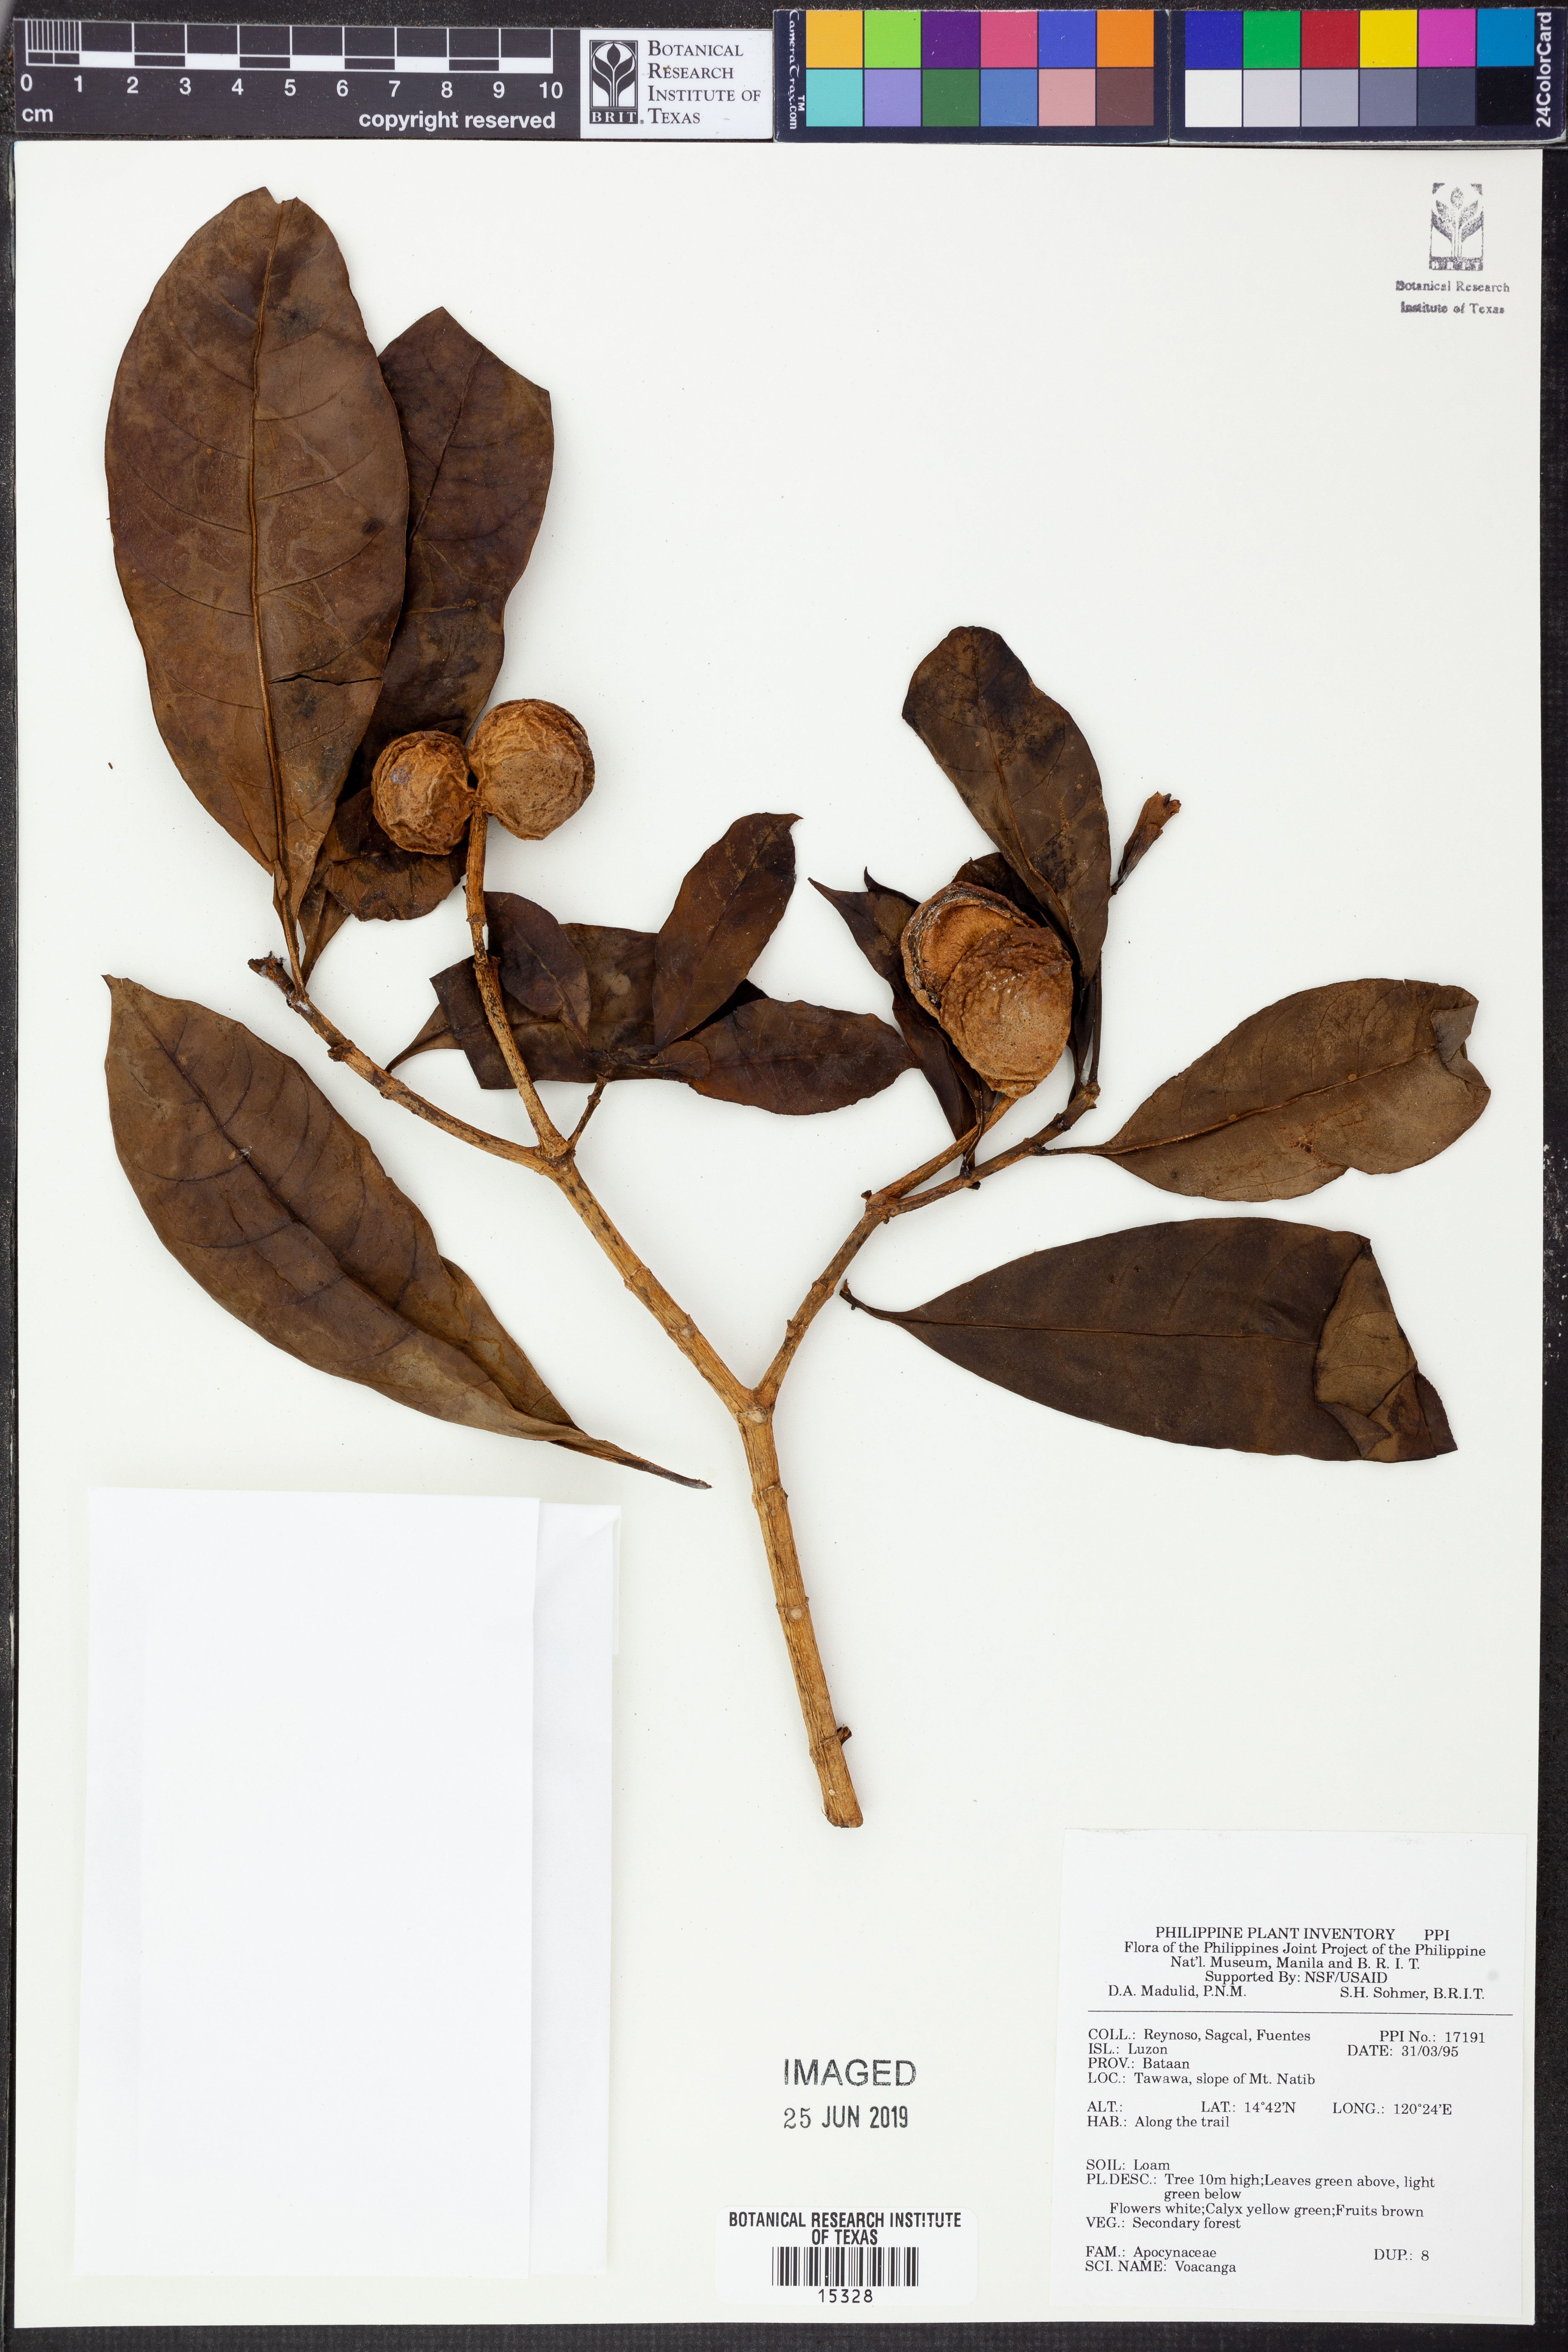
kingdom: Plantae
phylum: Tracheophyta
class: Magnoliopsida
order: Gentianales
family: Apocynaceae
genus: Voacanga
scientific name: Voacanga
